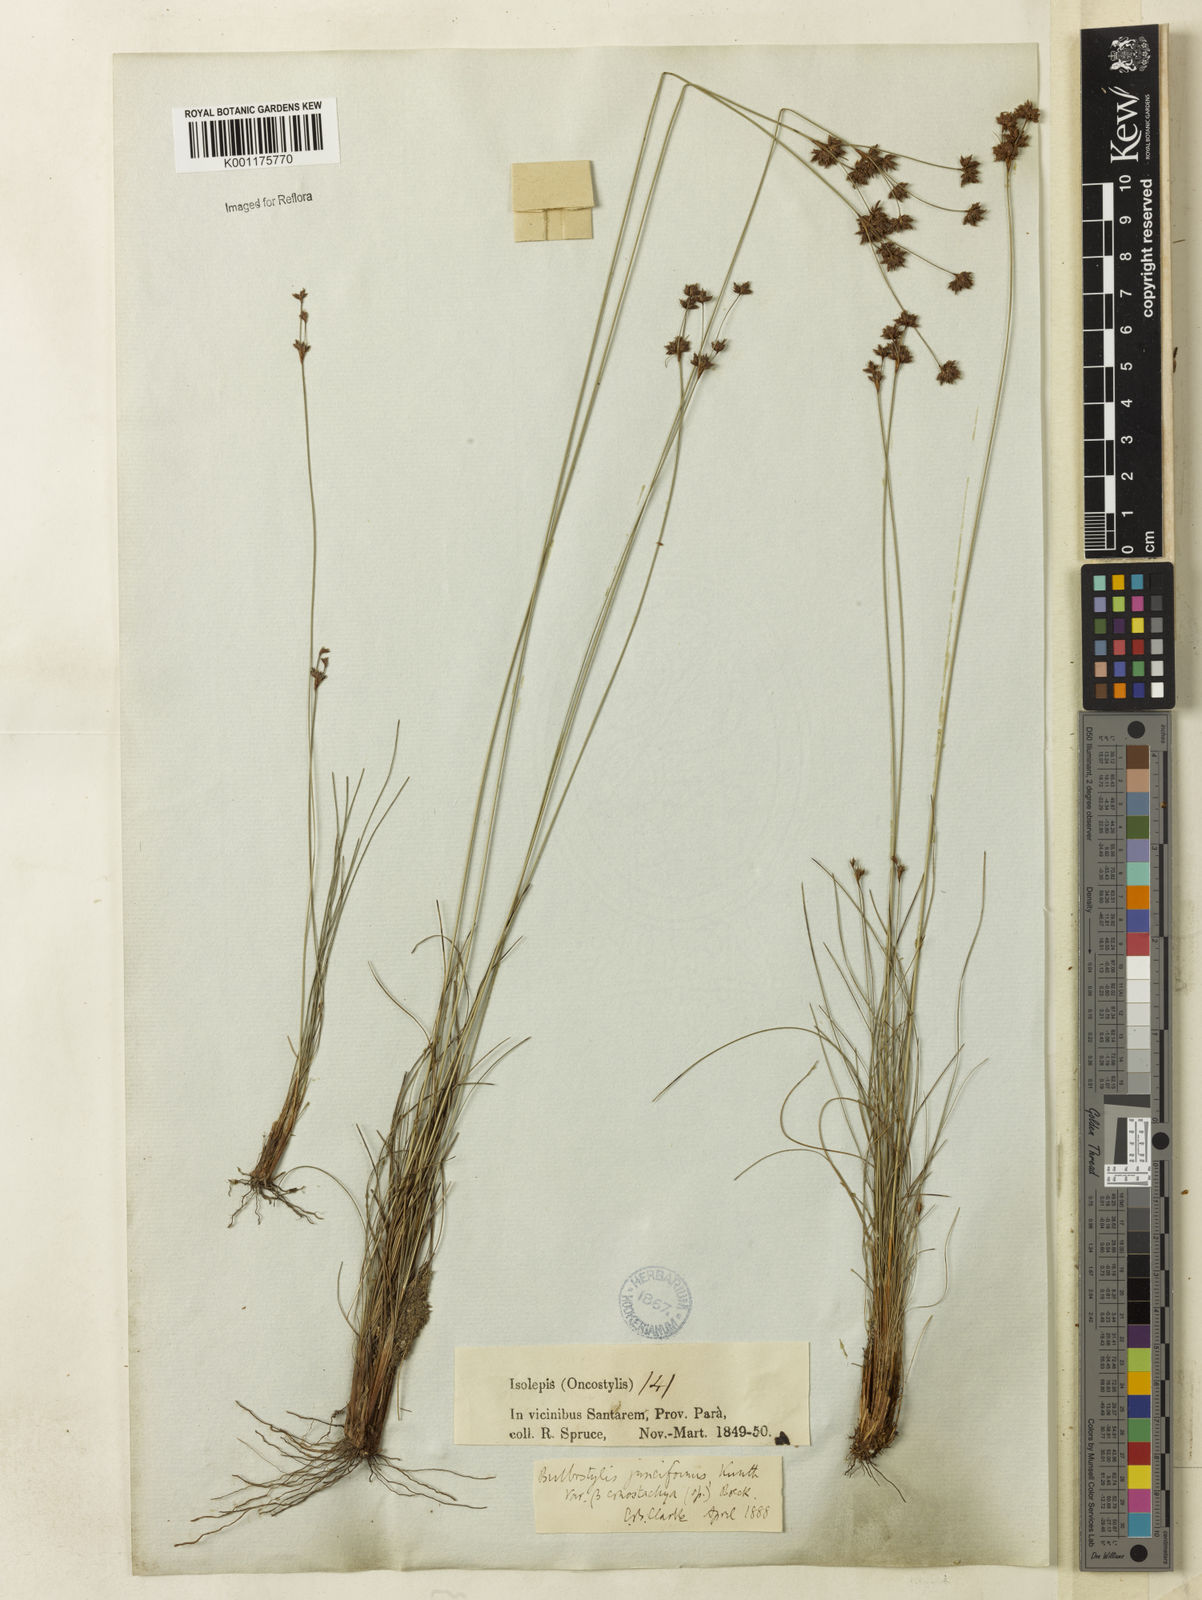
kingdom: Plantae
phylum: Tracheophyta
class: Liliopsida
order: Poales
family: Cyperaceae
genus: Bulbostylis
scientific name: Bulbostylis junciformis
